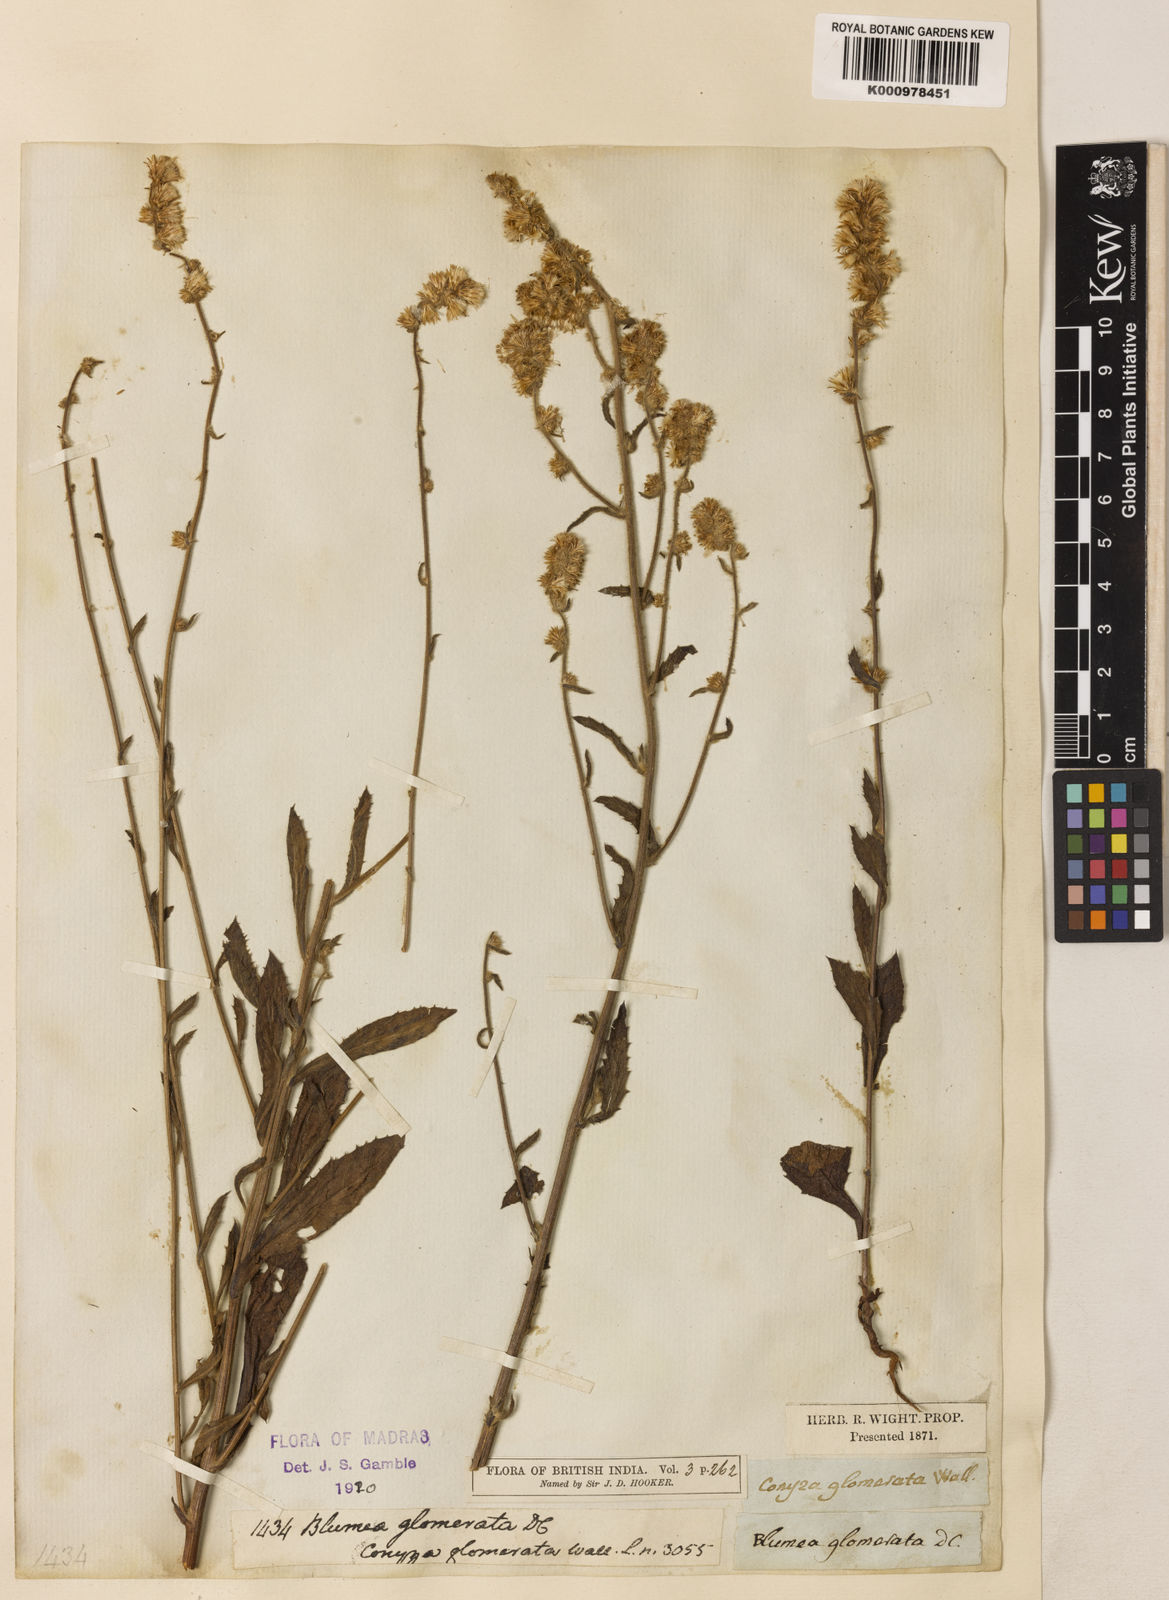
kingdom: Plantae
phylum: Tracheophyta
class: Magnoliopsida
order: Asterales
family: Asteraceae
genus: Blumea
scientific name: Blumea fistulosa
